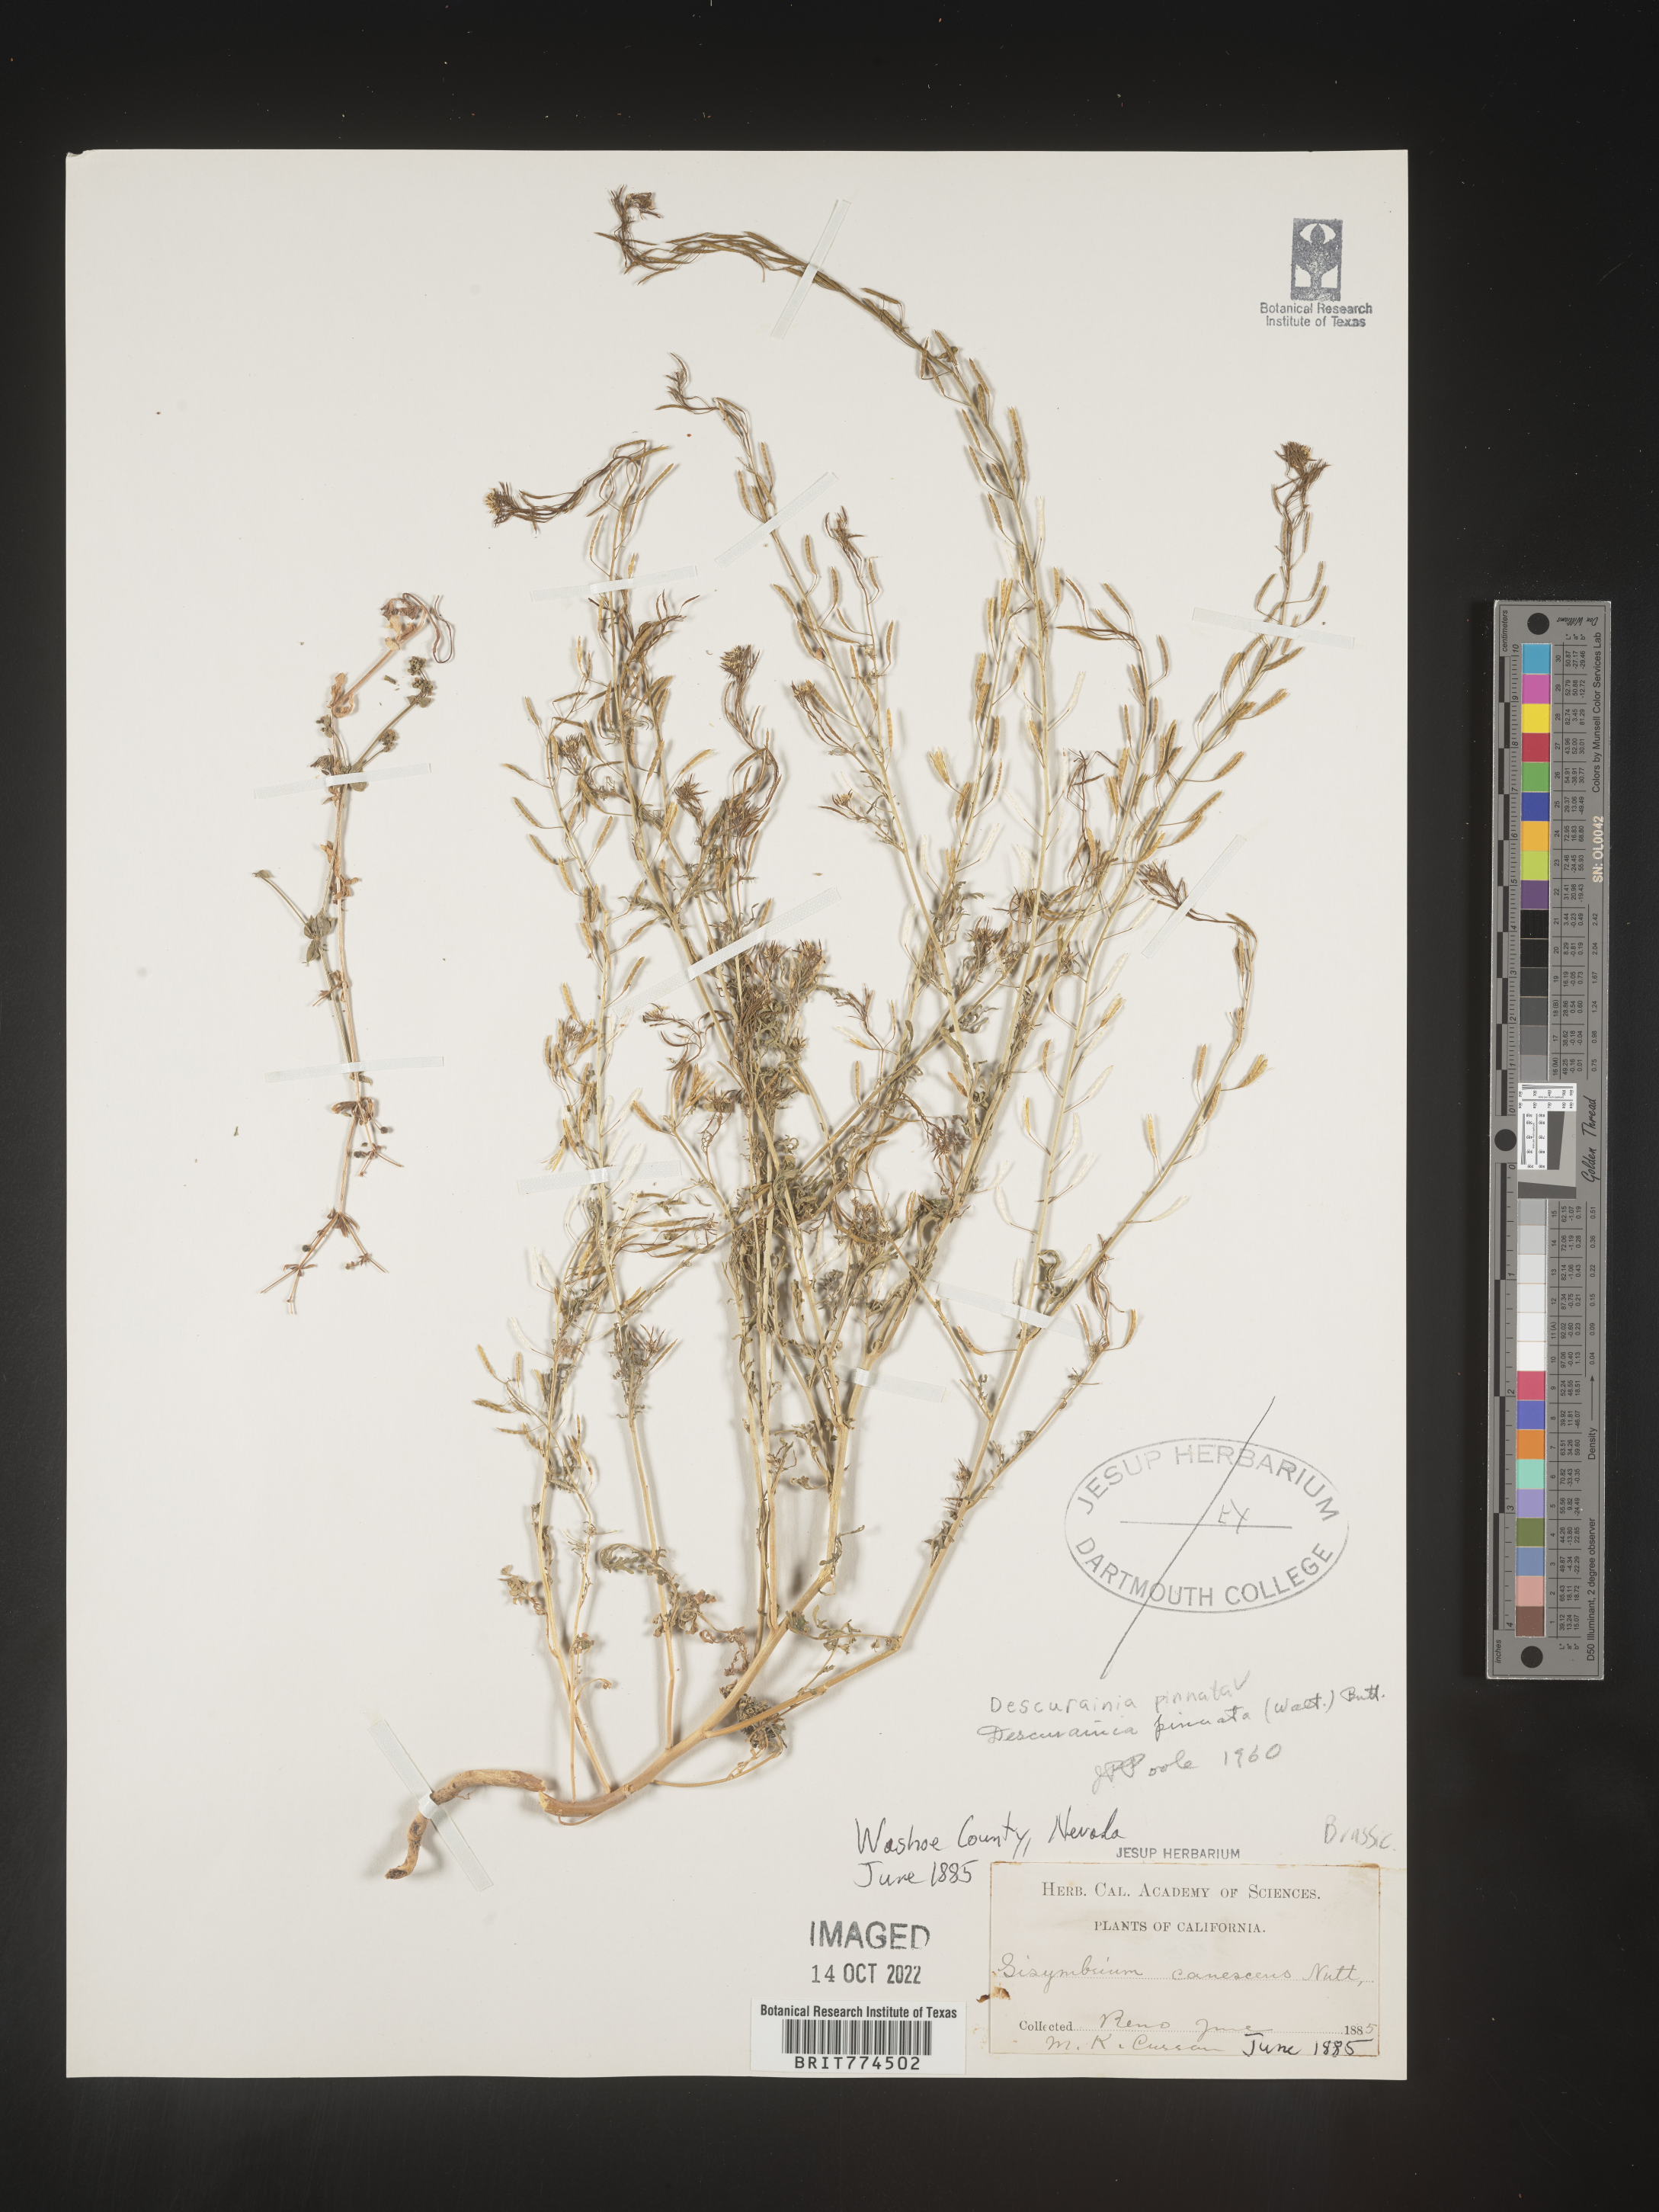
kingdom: Plantae
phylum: Tracheophyta
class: Magnoliopsida
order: Brassicales
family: Brassicaceae
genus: Descurainia
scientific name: Descurainia pinnata
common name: Western tansy mustard
